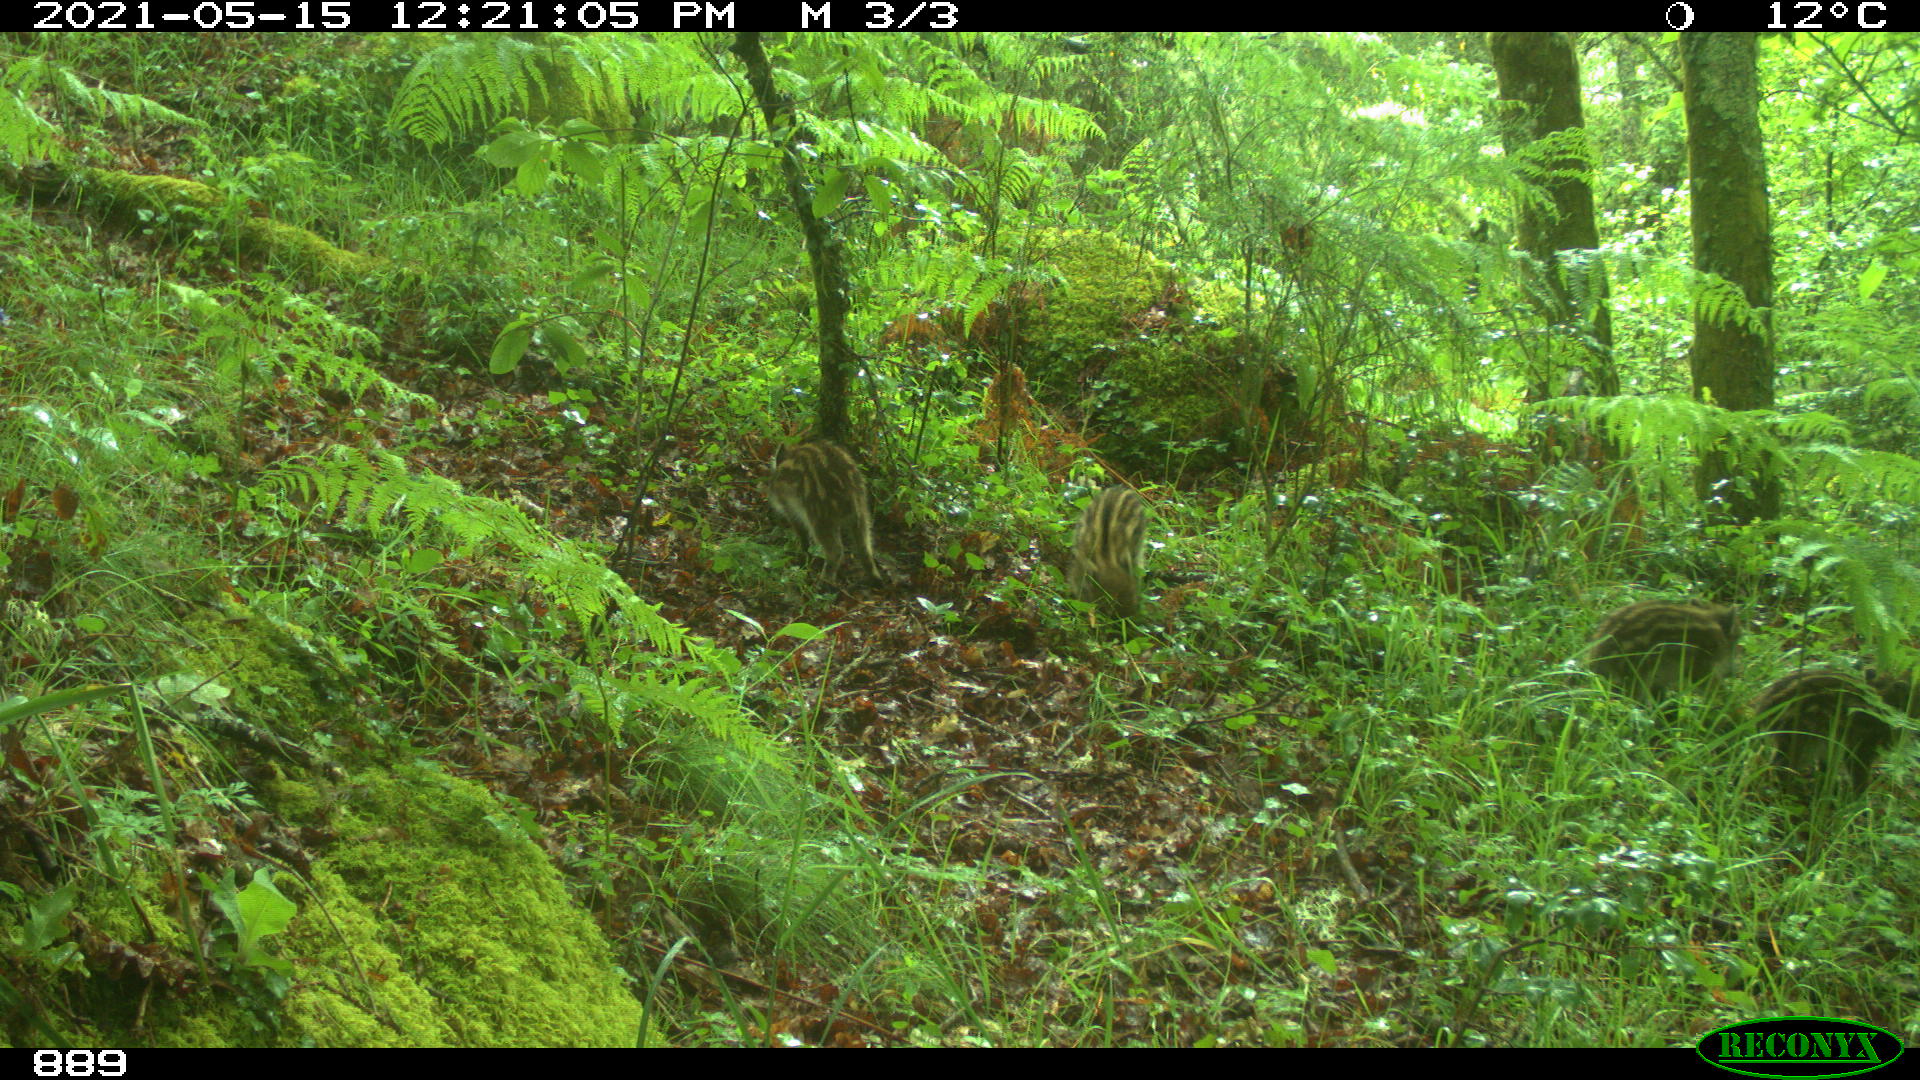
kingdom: Animalia
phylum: Chordata
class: Mammalia
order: Artiodactyla
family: Suidae
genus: Sus
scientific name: Sus scrofa
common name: Wild boar
